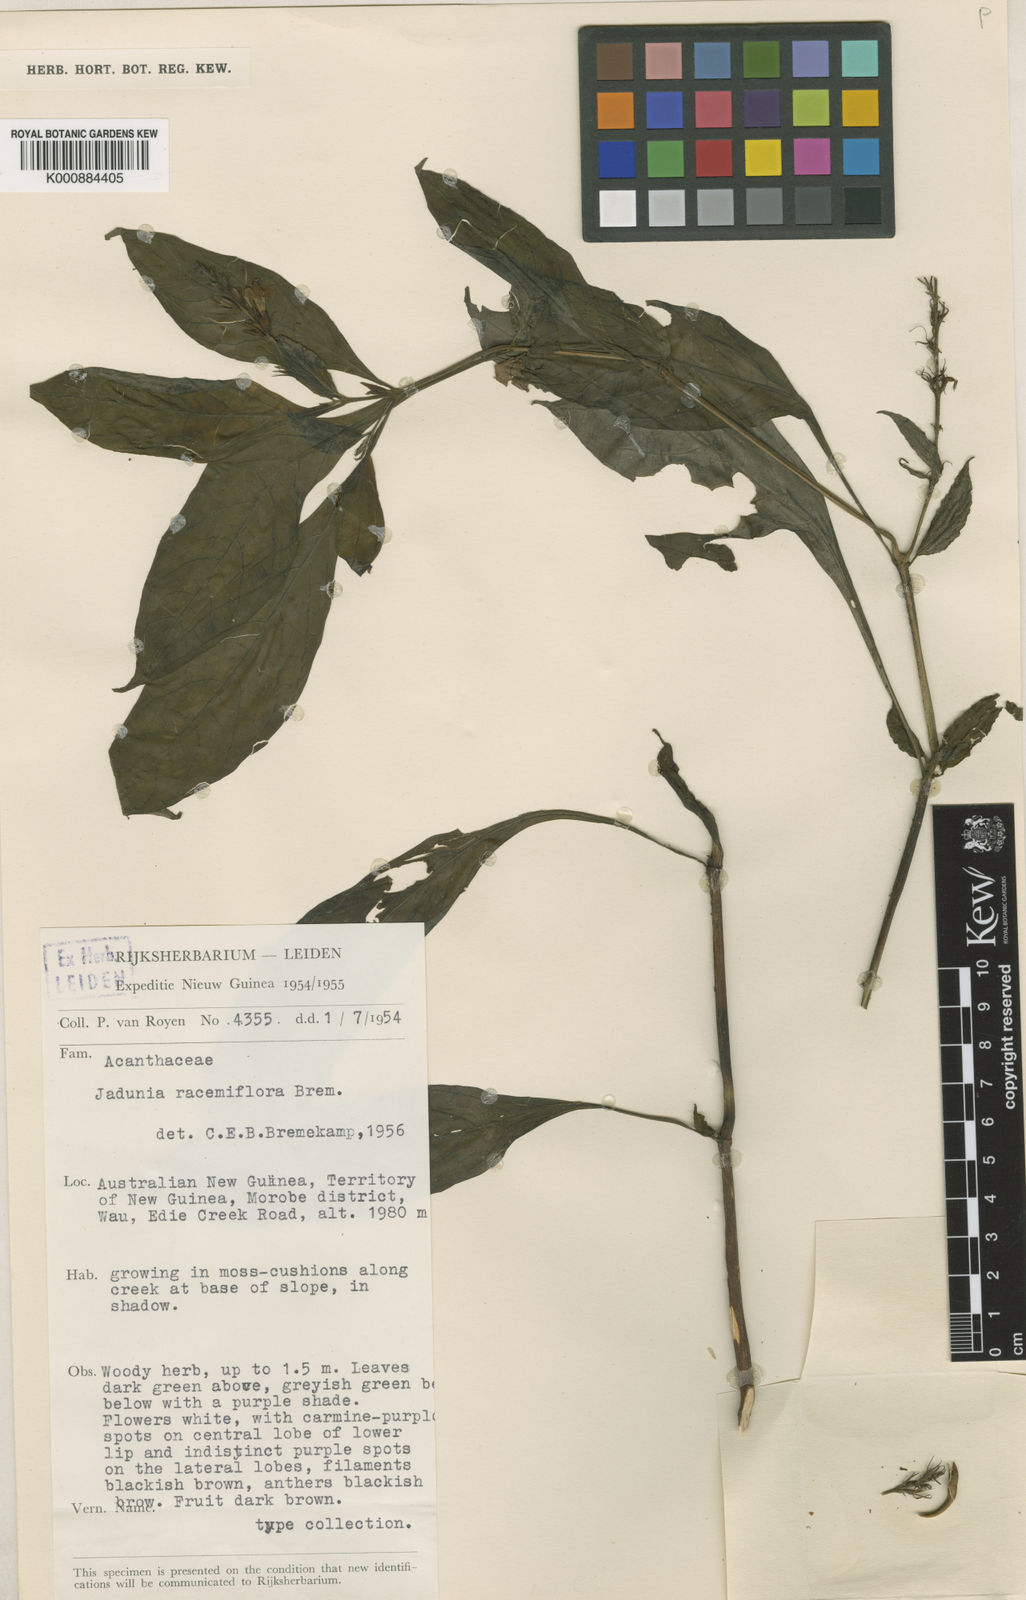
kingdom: Plantae
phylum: Tracheophyta
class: Magnoliopsida
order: Lamiales
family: Acanthaceae
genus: Jadunia
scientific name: Jadunia racemiflora
